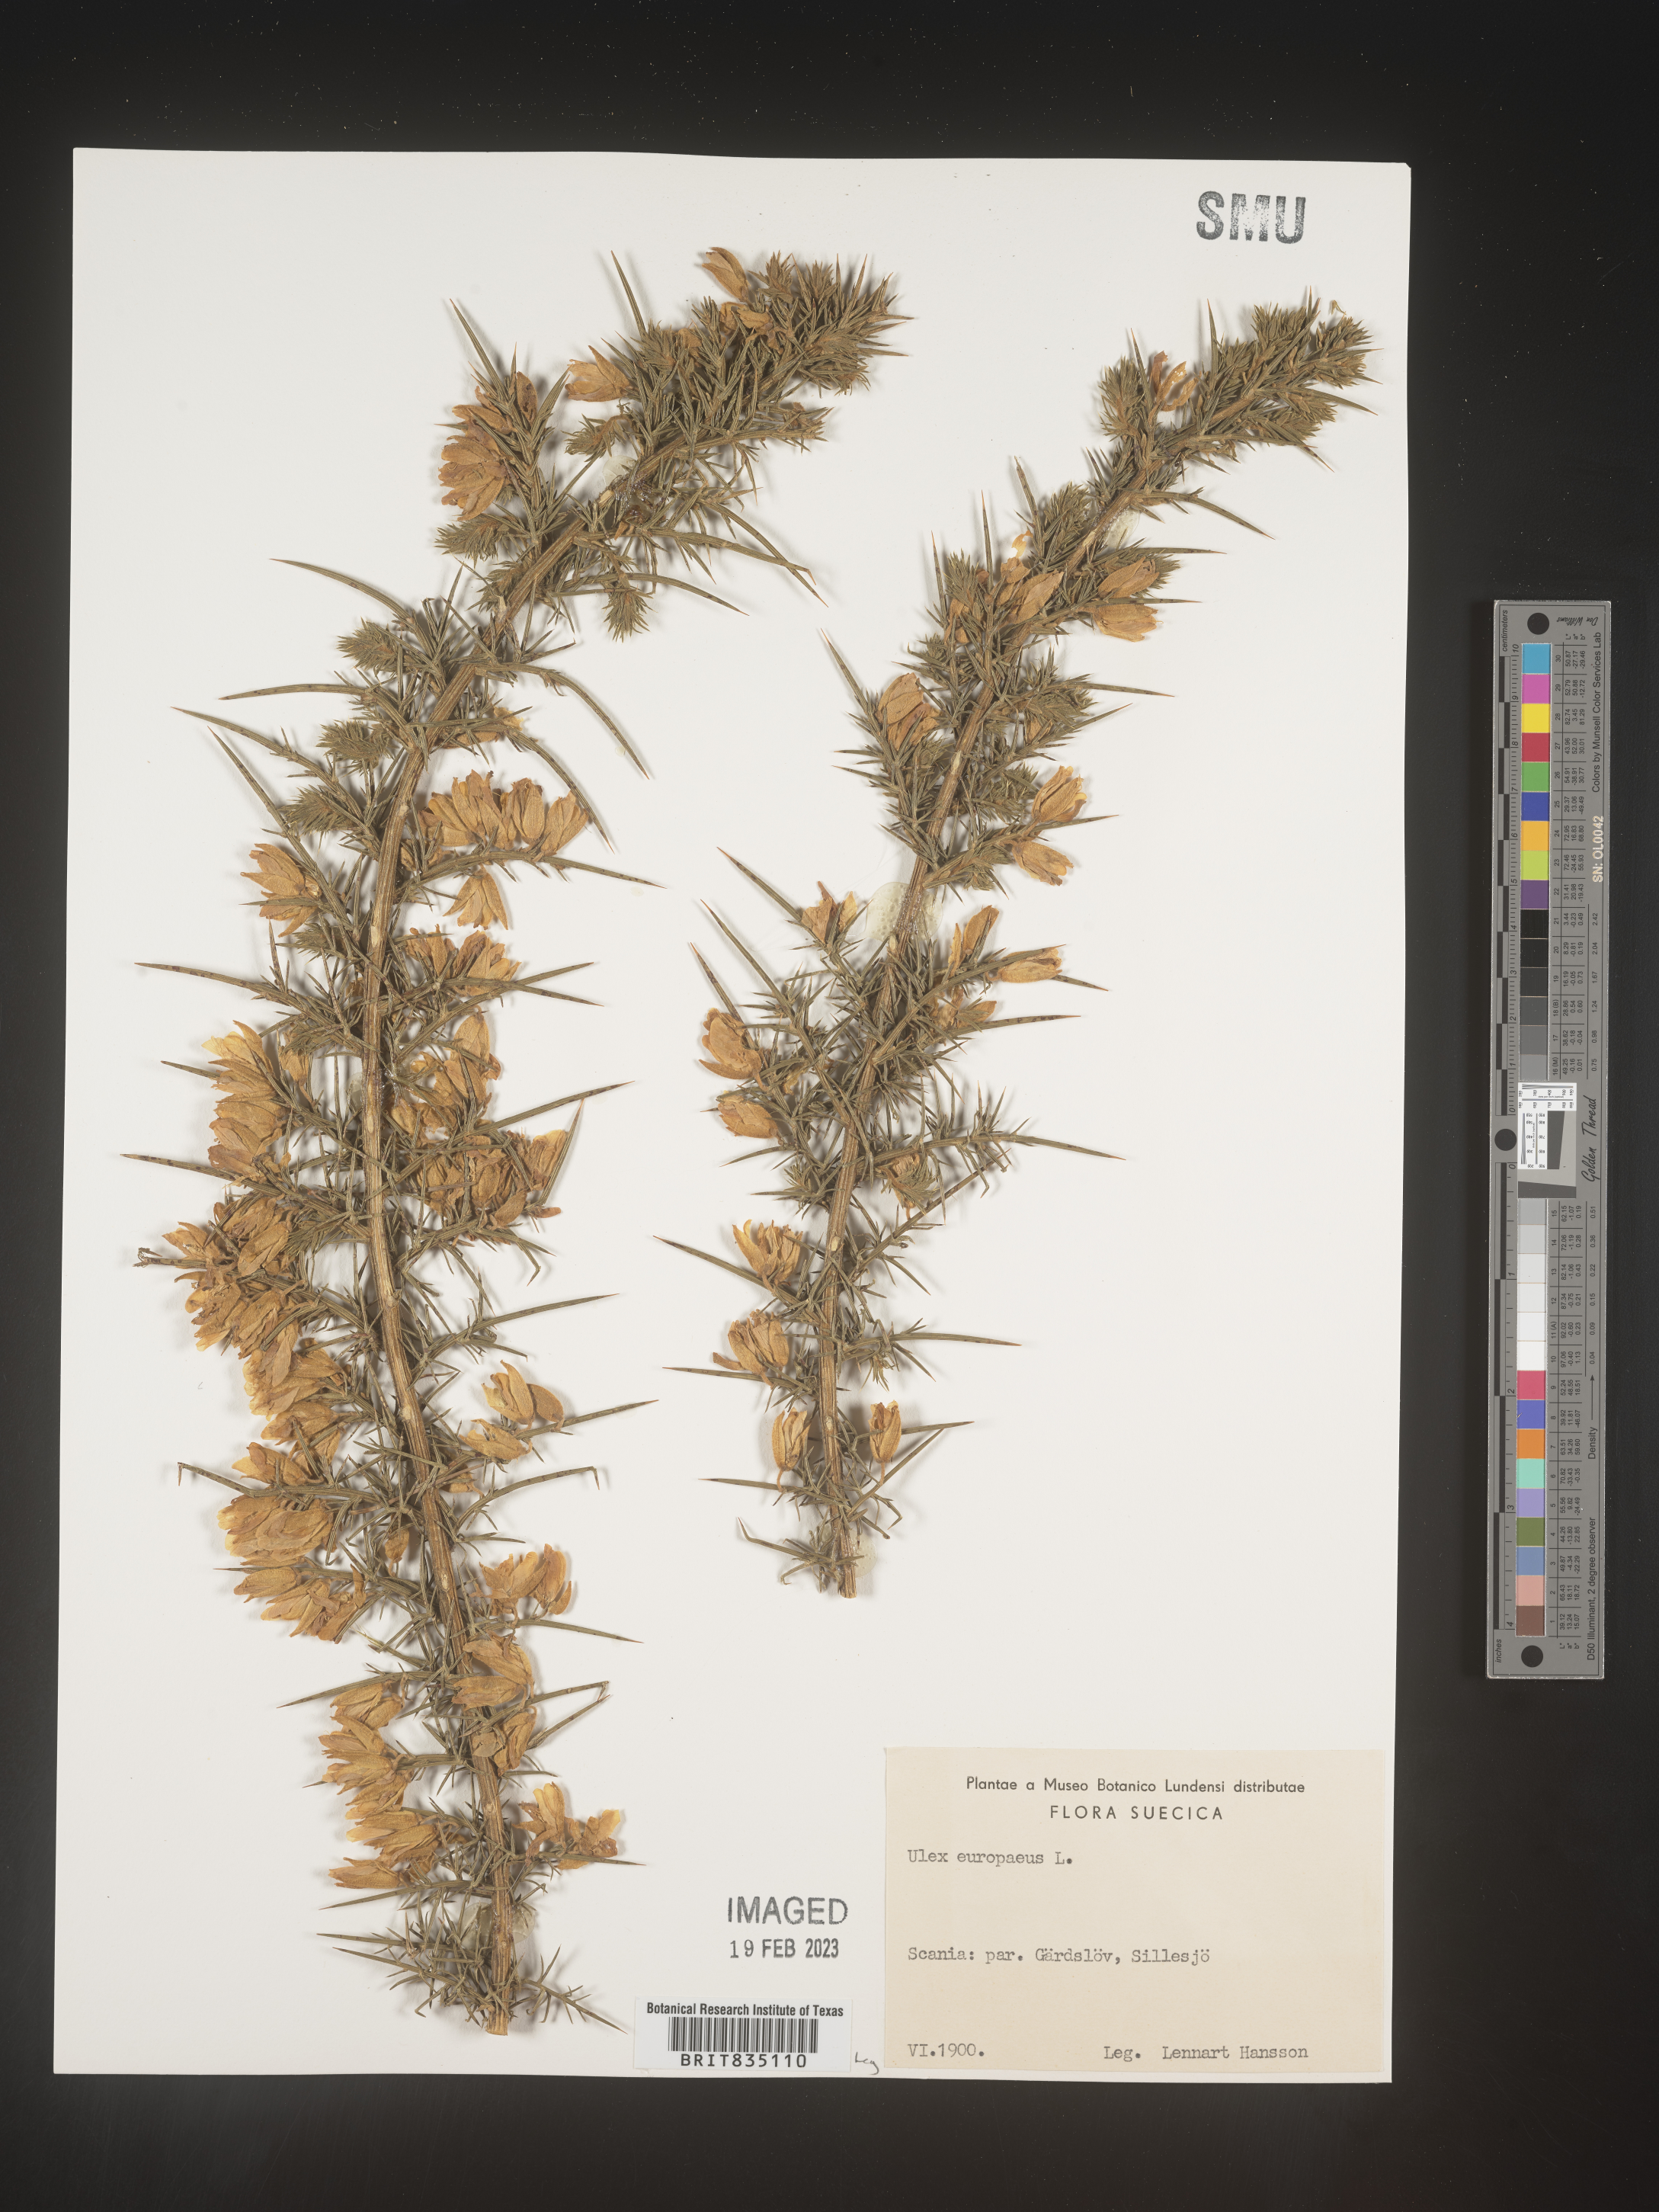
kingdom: Plantae
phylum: Tracheophyta
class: Magnoliopsida
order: Fabales
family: Fabaceae
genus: Ulex
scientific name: Ulex
